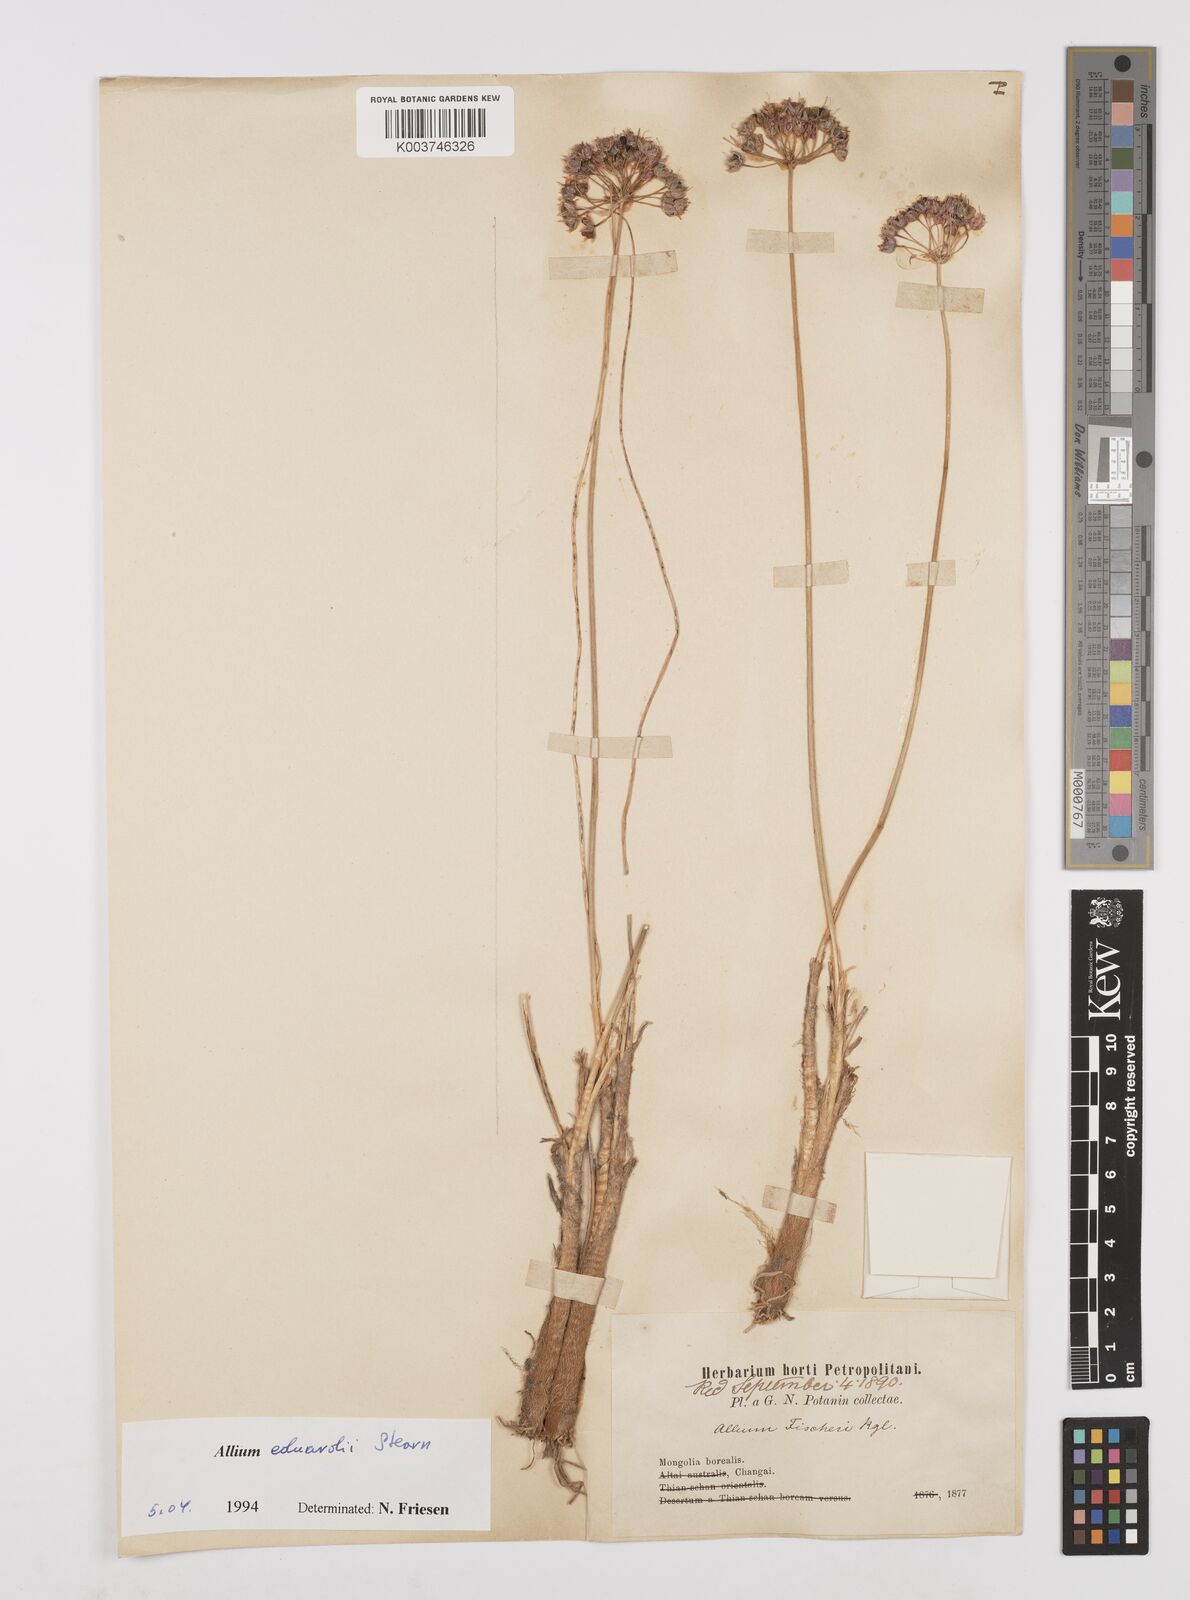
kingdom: Plantae
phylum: Tracheophyta
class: Liliopsida
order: Asparagales
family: Amaryllidaceae
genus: Allium
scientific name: Allium eduardi
